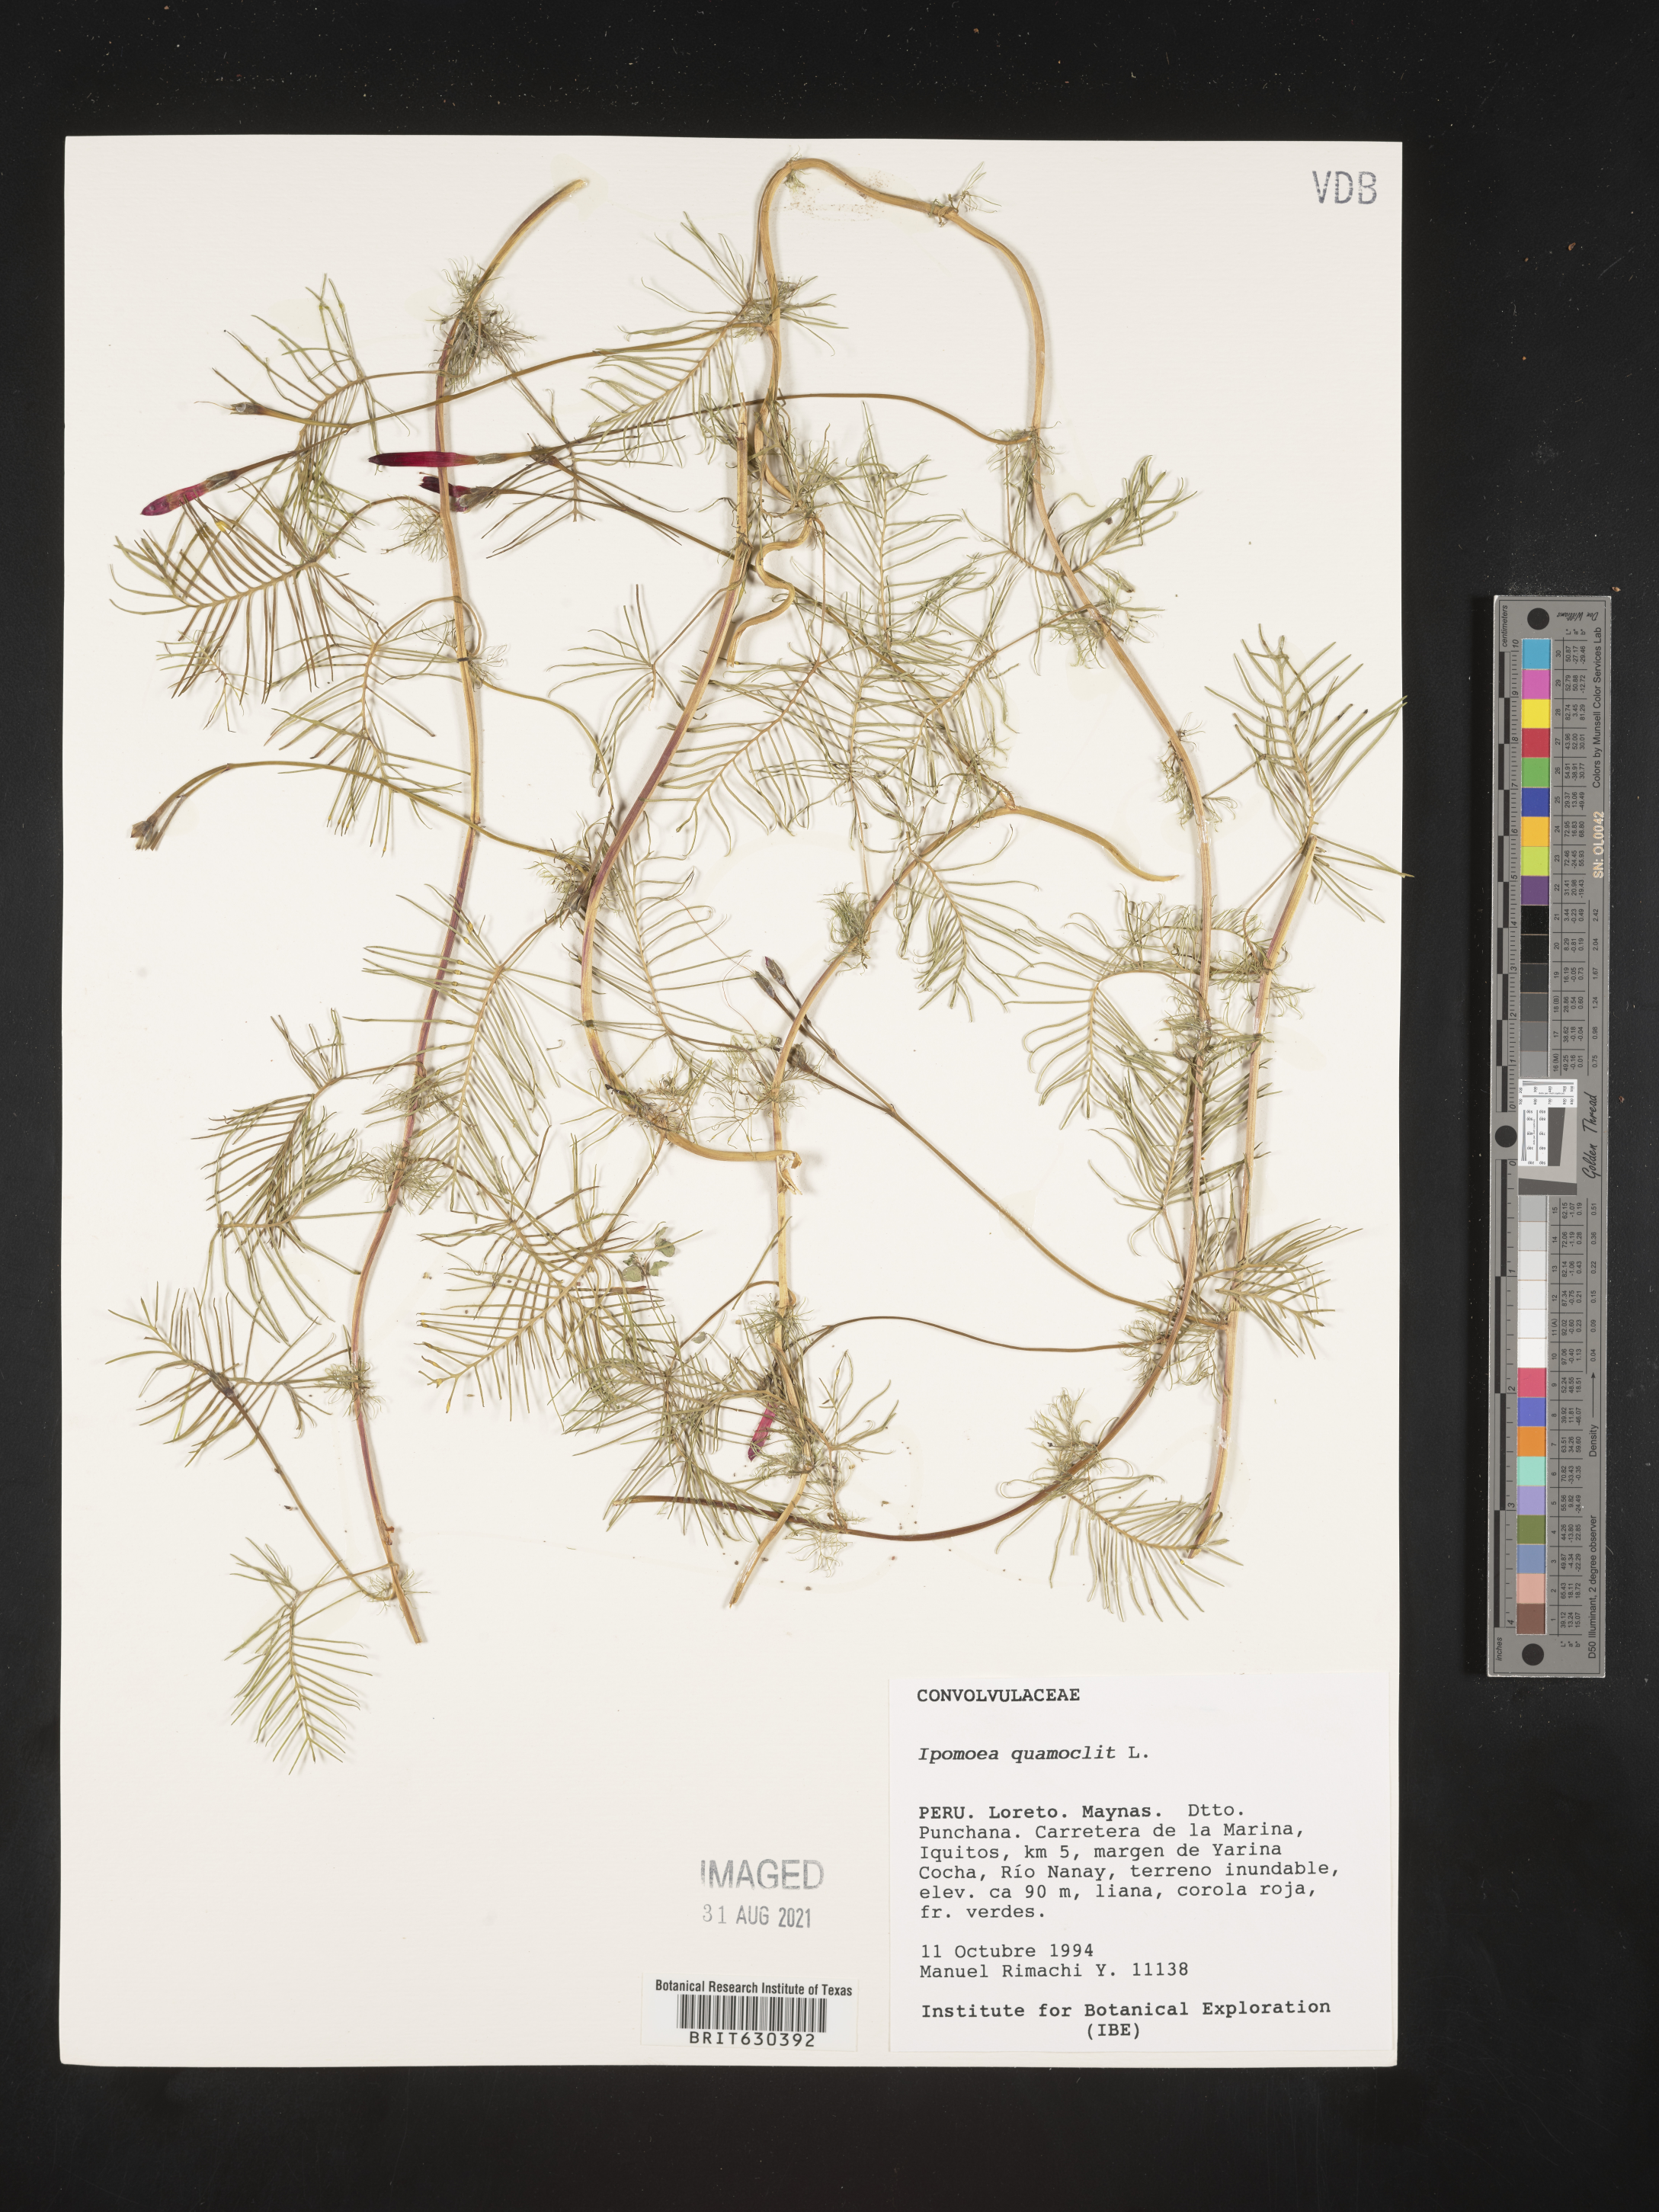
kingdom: Plantae
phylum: Tracheophyta
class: Magnoliopsida
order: Solanales
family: Convolvulaceae
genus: Ipomoea
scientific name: Ipomoea quamoclit
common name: Cypress vine
